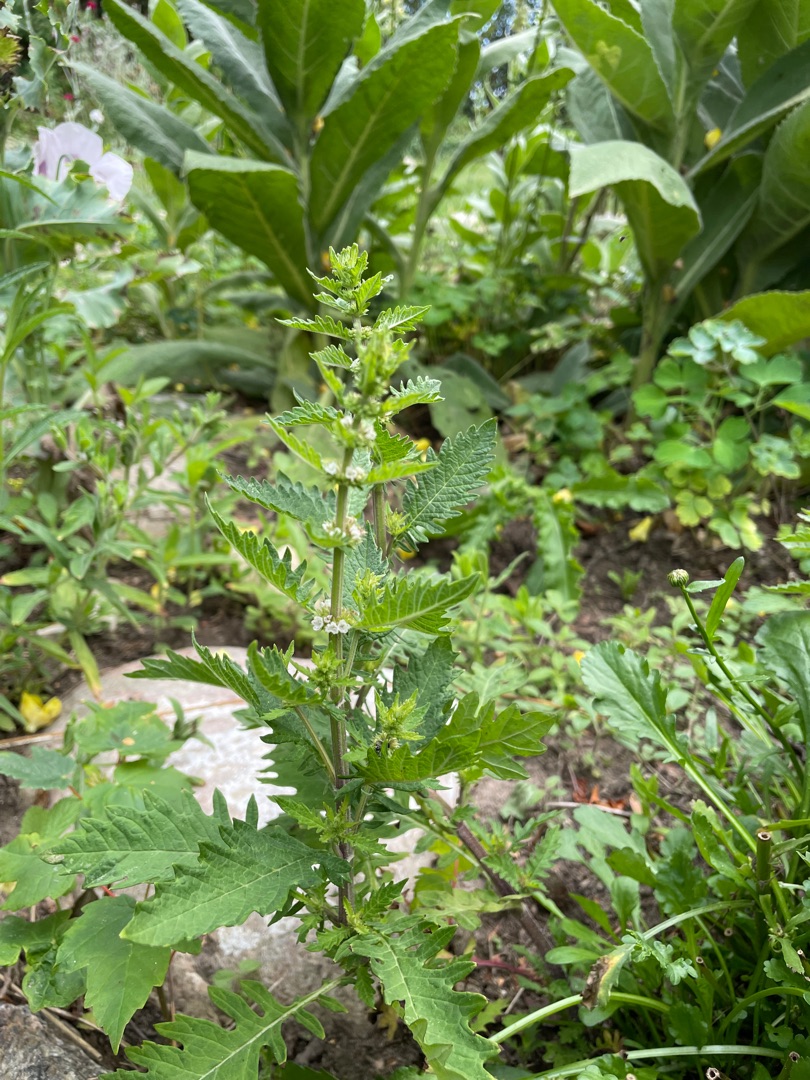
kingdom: Plantae
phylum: Tracheophyta
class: Magnoliopsida
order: Lamiales
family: Lamiaceae
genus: Lycopus
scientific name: Lycopus europaeus
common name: Sværtevæld
